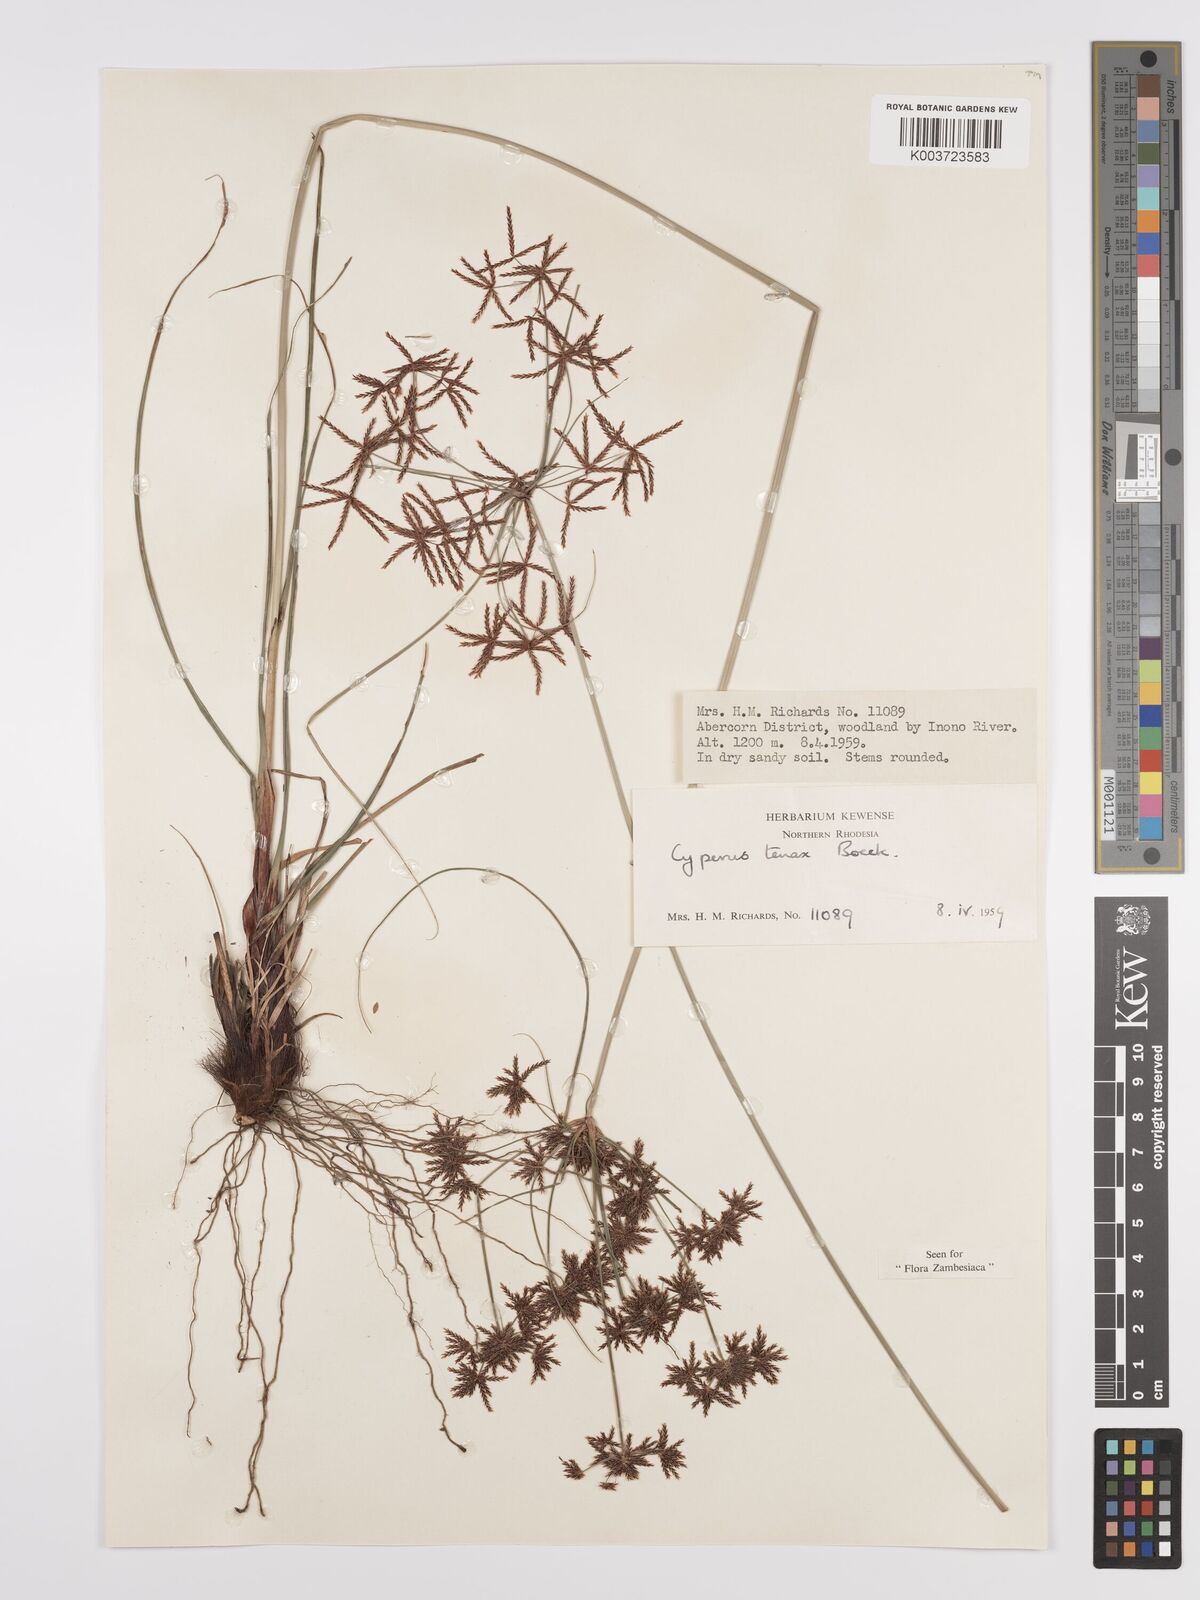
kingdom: Plantae
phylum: Tracheophyta
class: Liliopsida
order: Poales
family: Cyperaceae
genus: Cyperus
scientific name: Cyperus tenax
